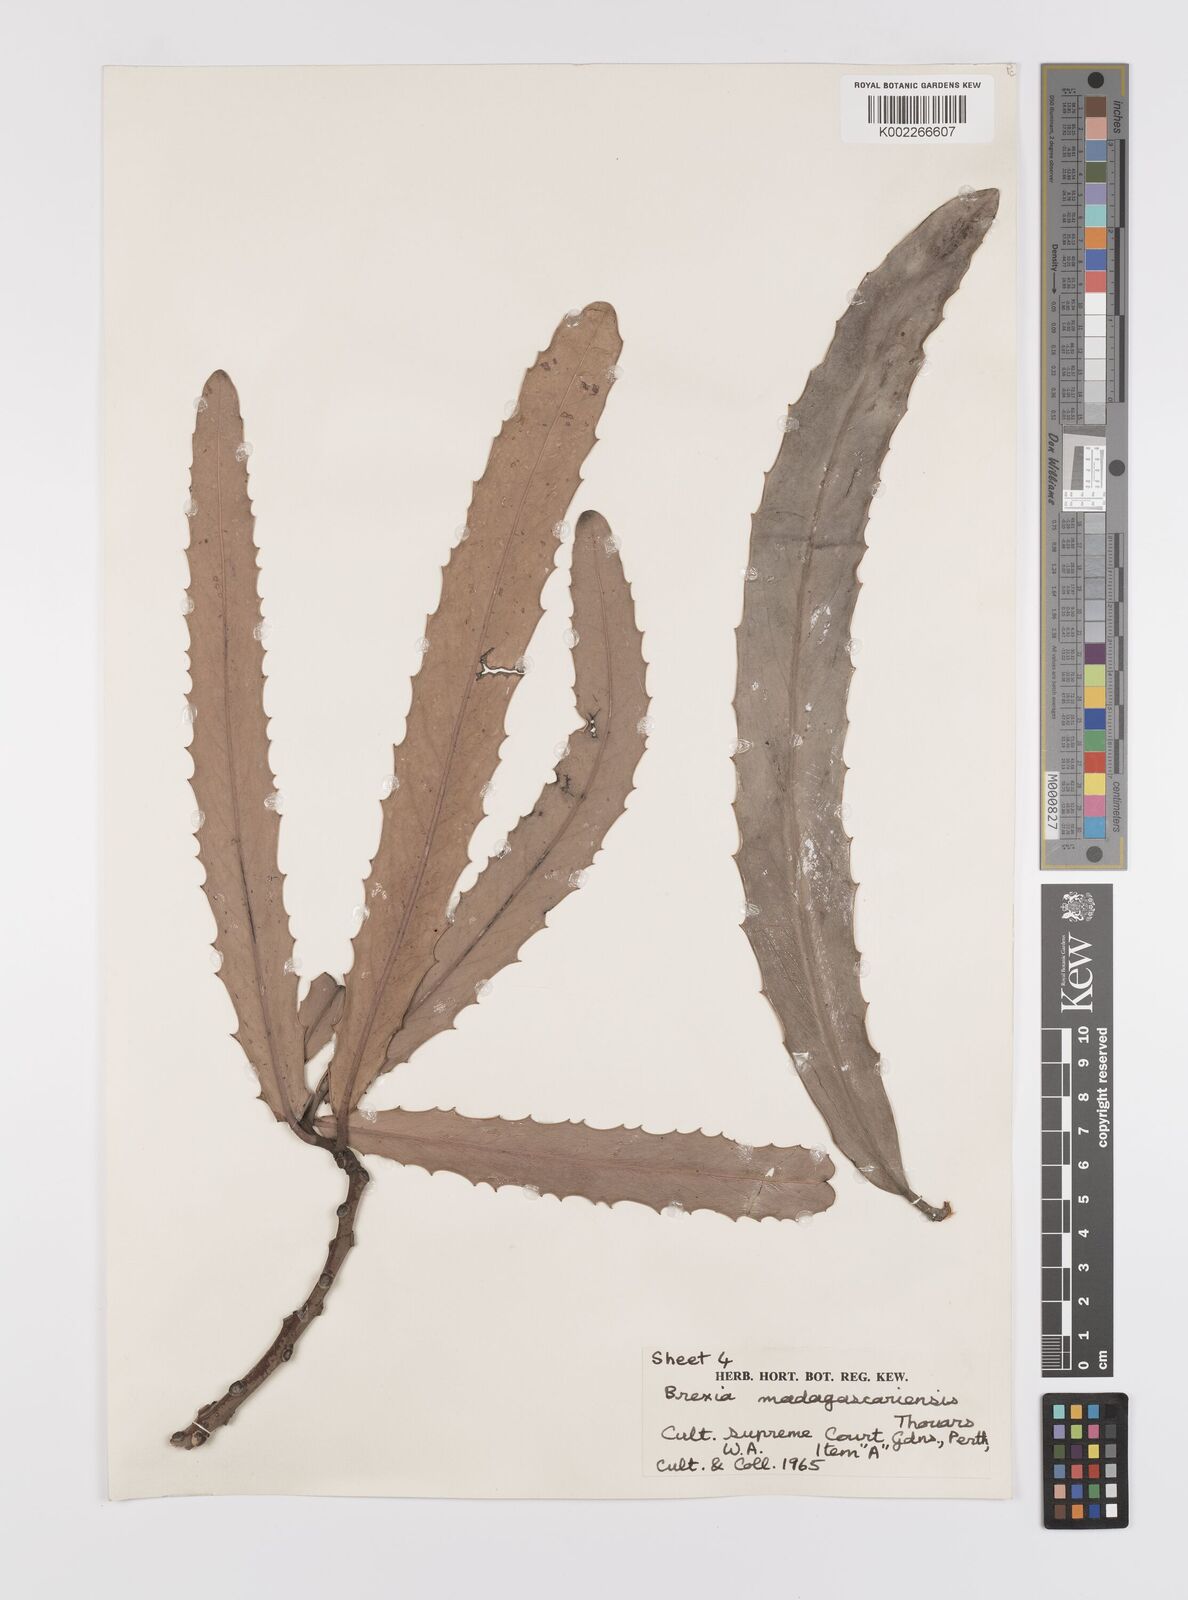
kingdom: Plantae
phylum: Tracheophyta
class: Magnoliopsida
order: Celastrales
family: Celastraceae
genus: Brexia
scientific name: Brexia madagascariensis
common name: Brexia
